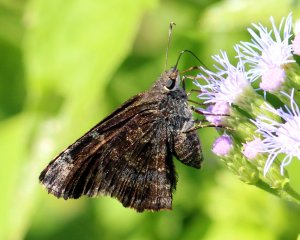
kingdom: Animalia
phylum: Arthropoda
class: Insecta
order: Lepidoptera
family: Hesperiidae
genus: Caicella
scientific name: Caicella calchas
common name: Mimosa Skipper
